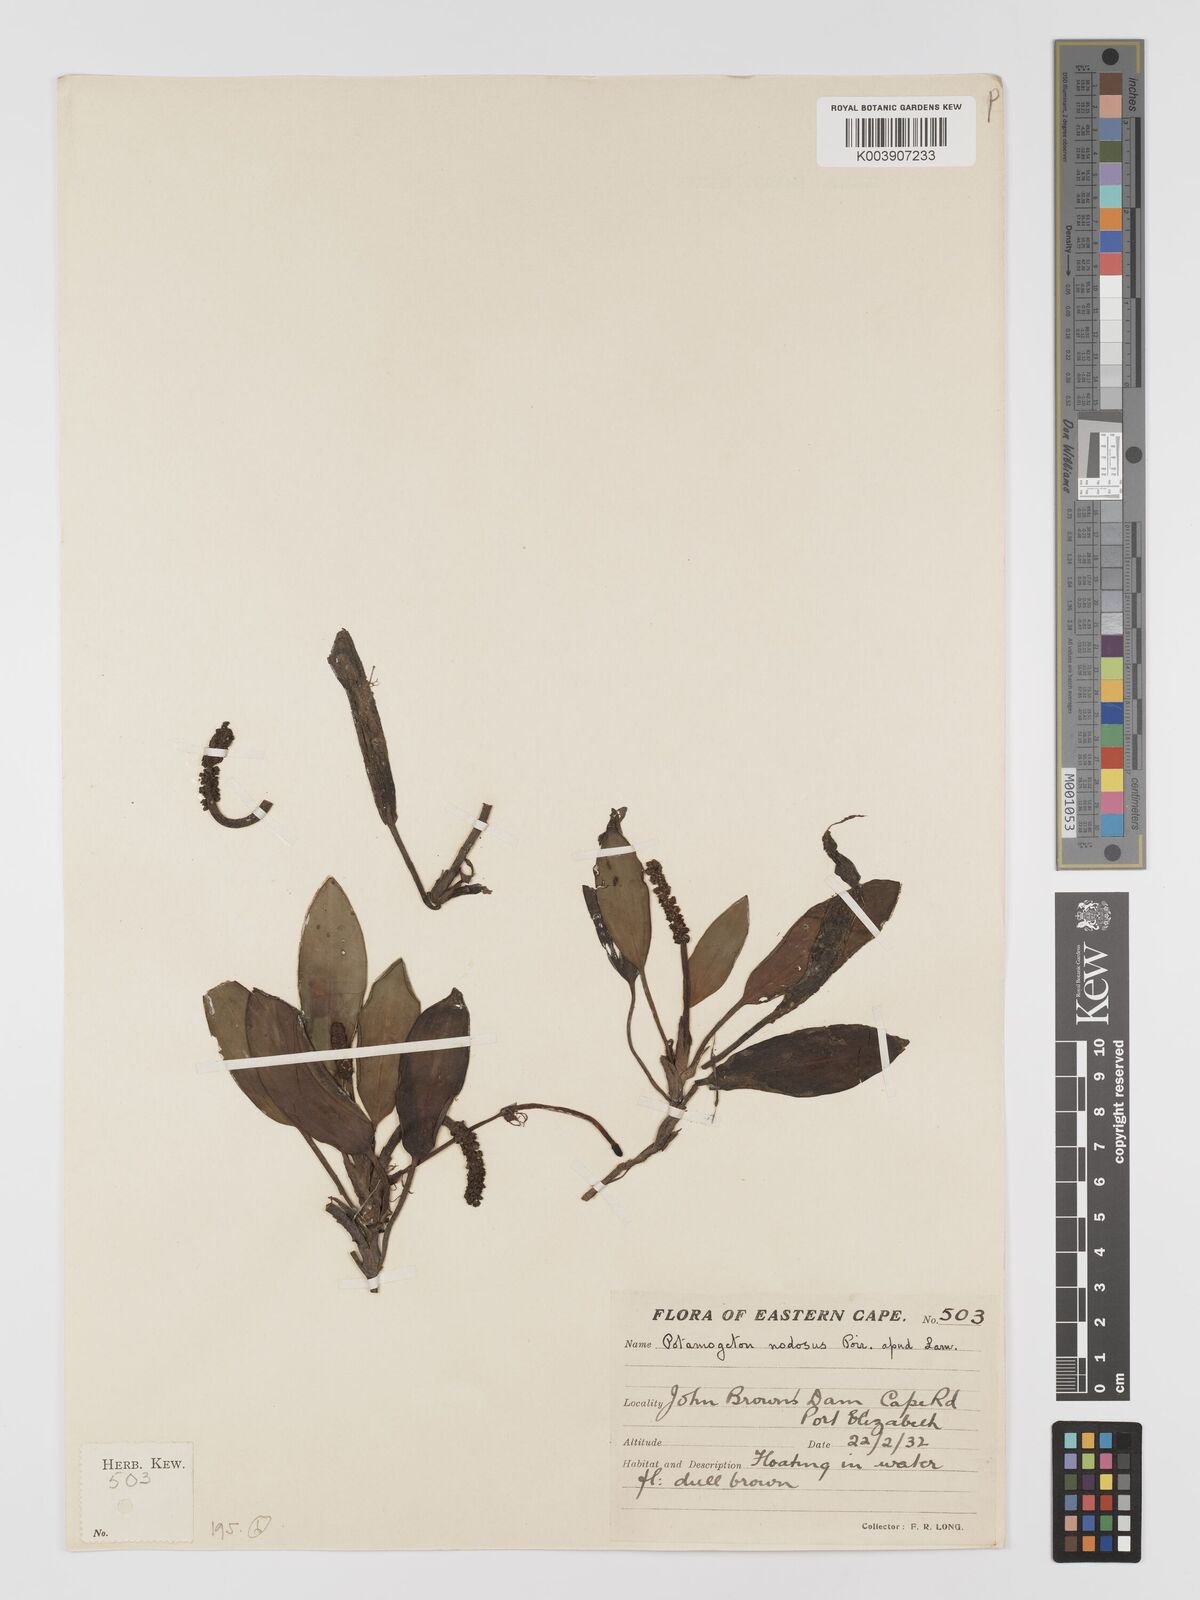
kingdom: Plantae
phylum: Tracheophyta
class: Liliopsida
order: Alismatales
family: Potamogetonaceae
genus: Potamogeton
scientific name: Potamogeton nodosus
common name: Loddon pondweed
